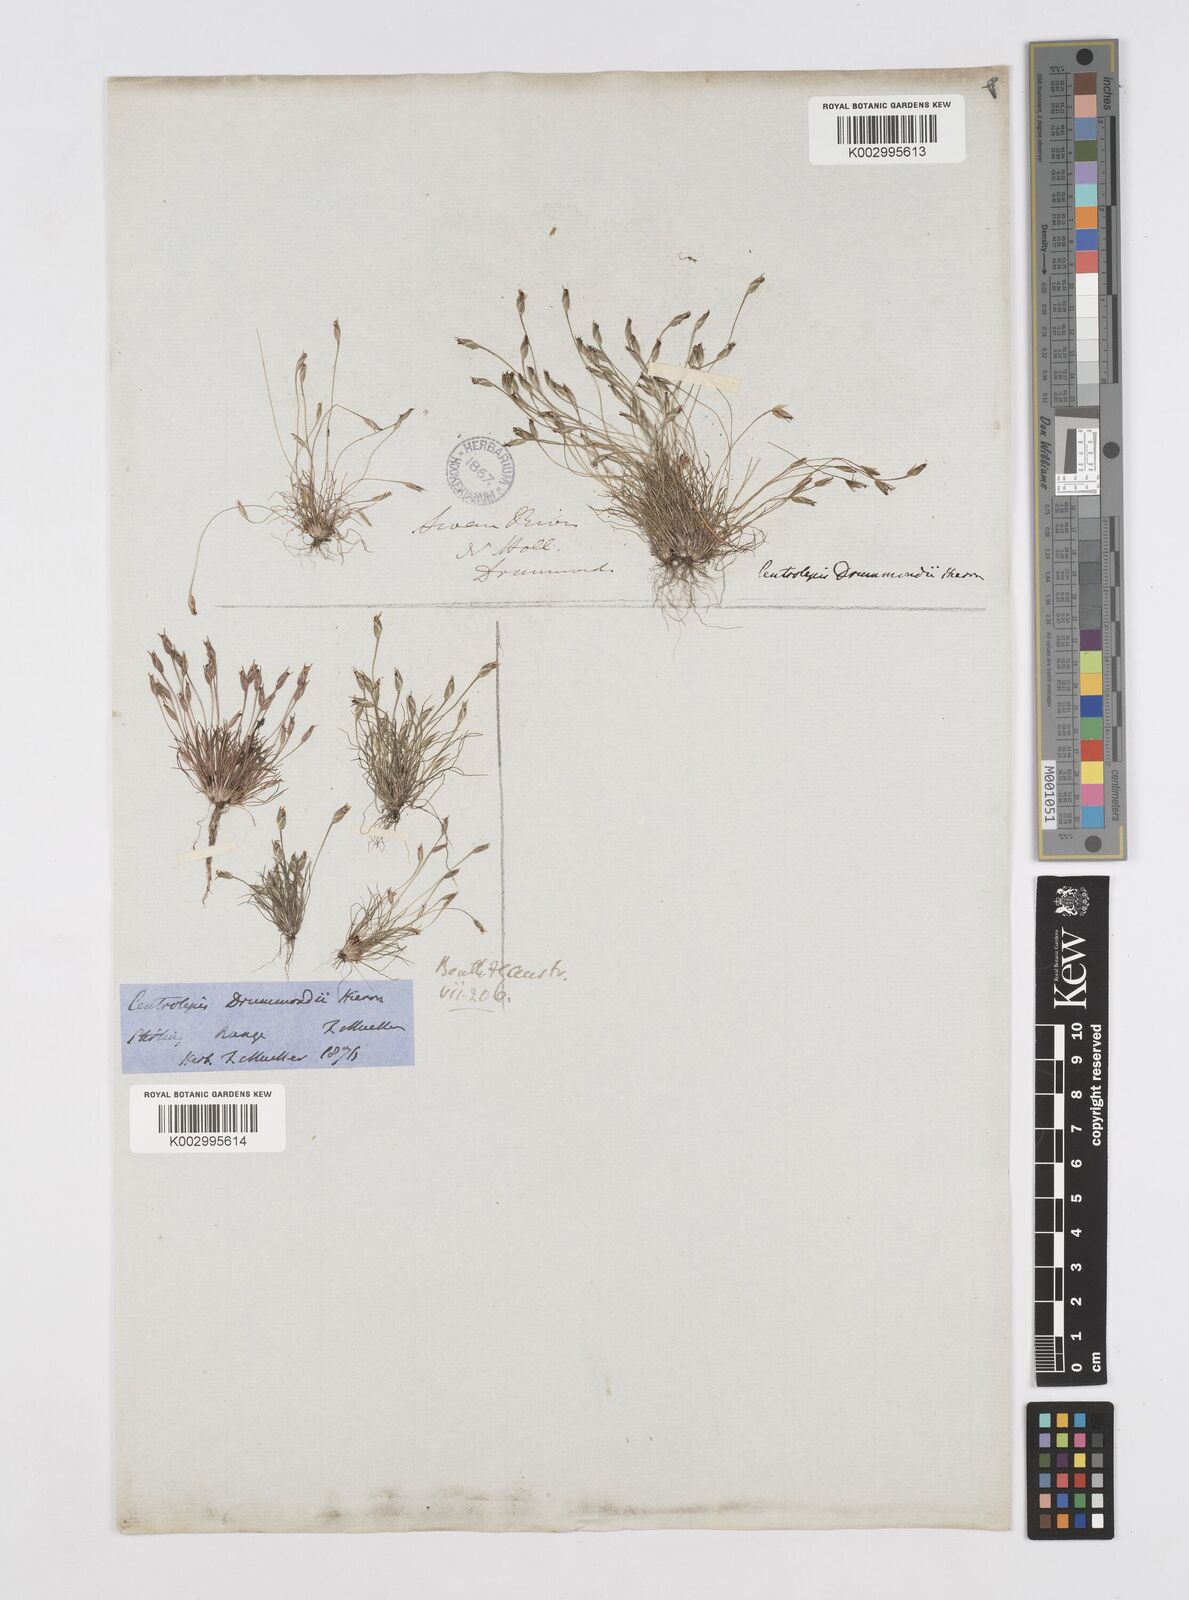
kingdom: Plantae
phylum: Tracheophyta
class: Liliopsida
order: Poales
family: Restionaceae
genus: Centrolepis
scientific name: Centrolepis drummondiana
